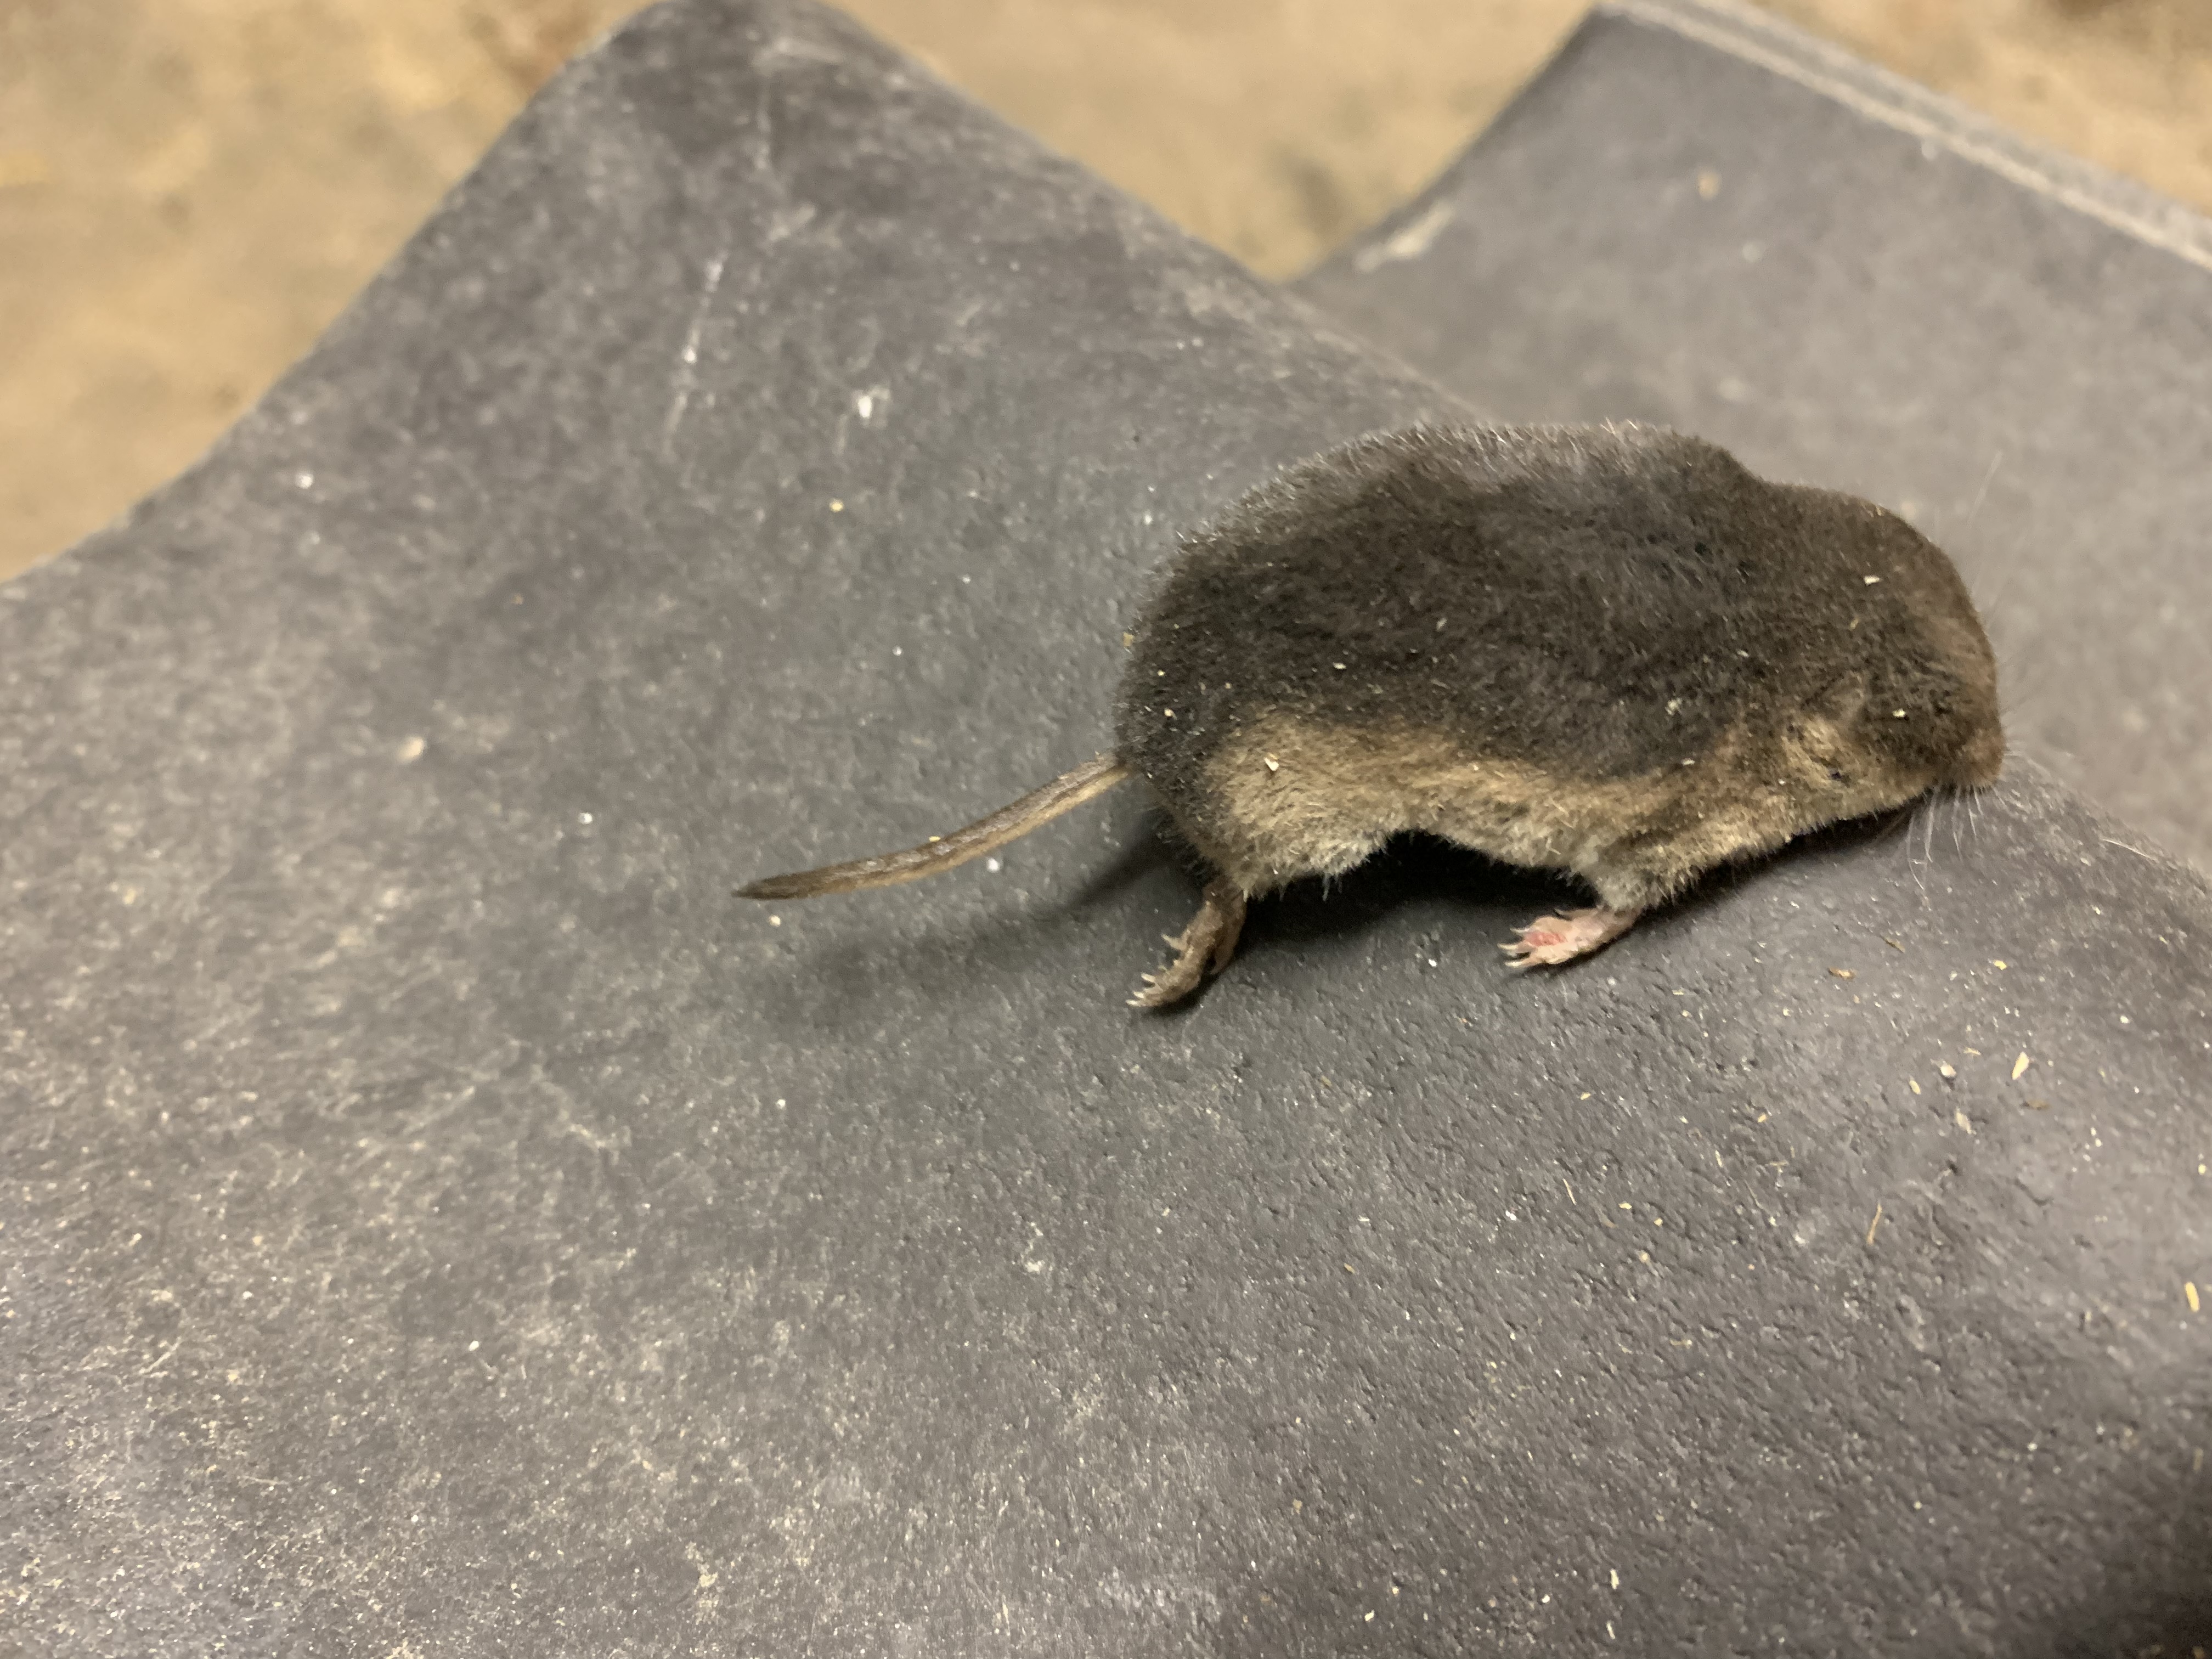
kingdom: Animalia
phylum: Chordata
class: Mammalia
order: Soricomorpha
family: Soricidae
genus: Sorex
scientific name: Sorex araneus
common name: Almindelig spidsmus
